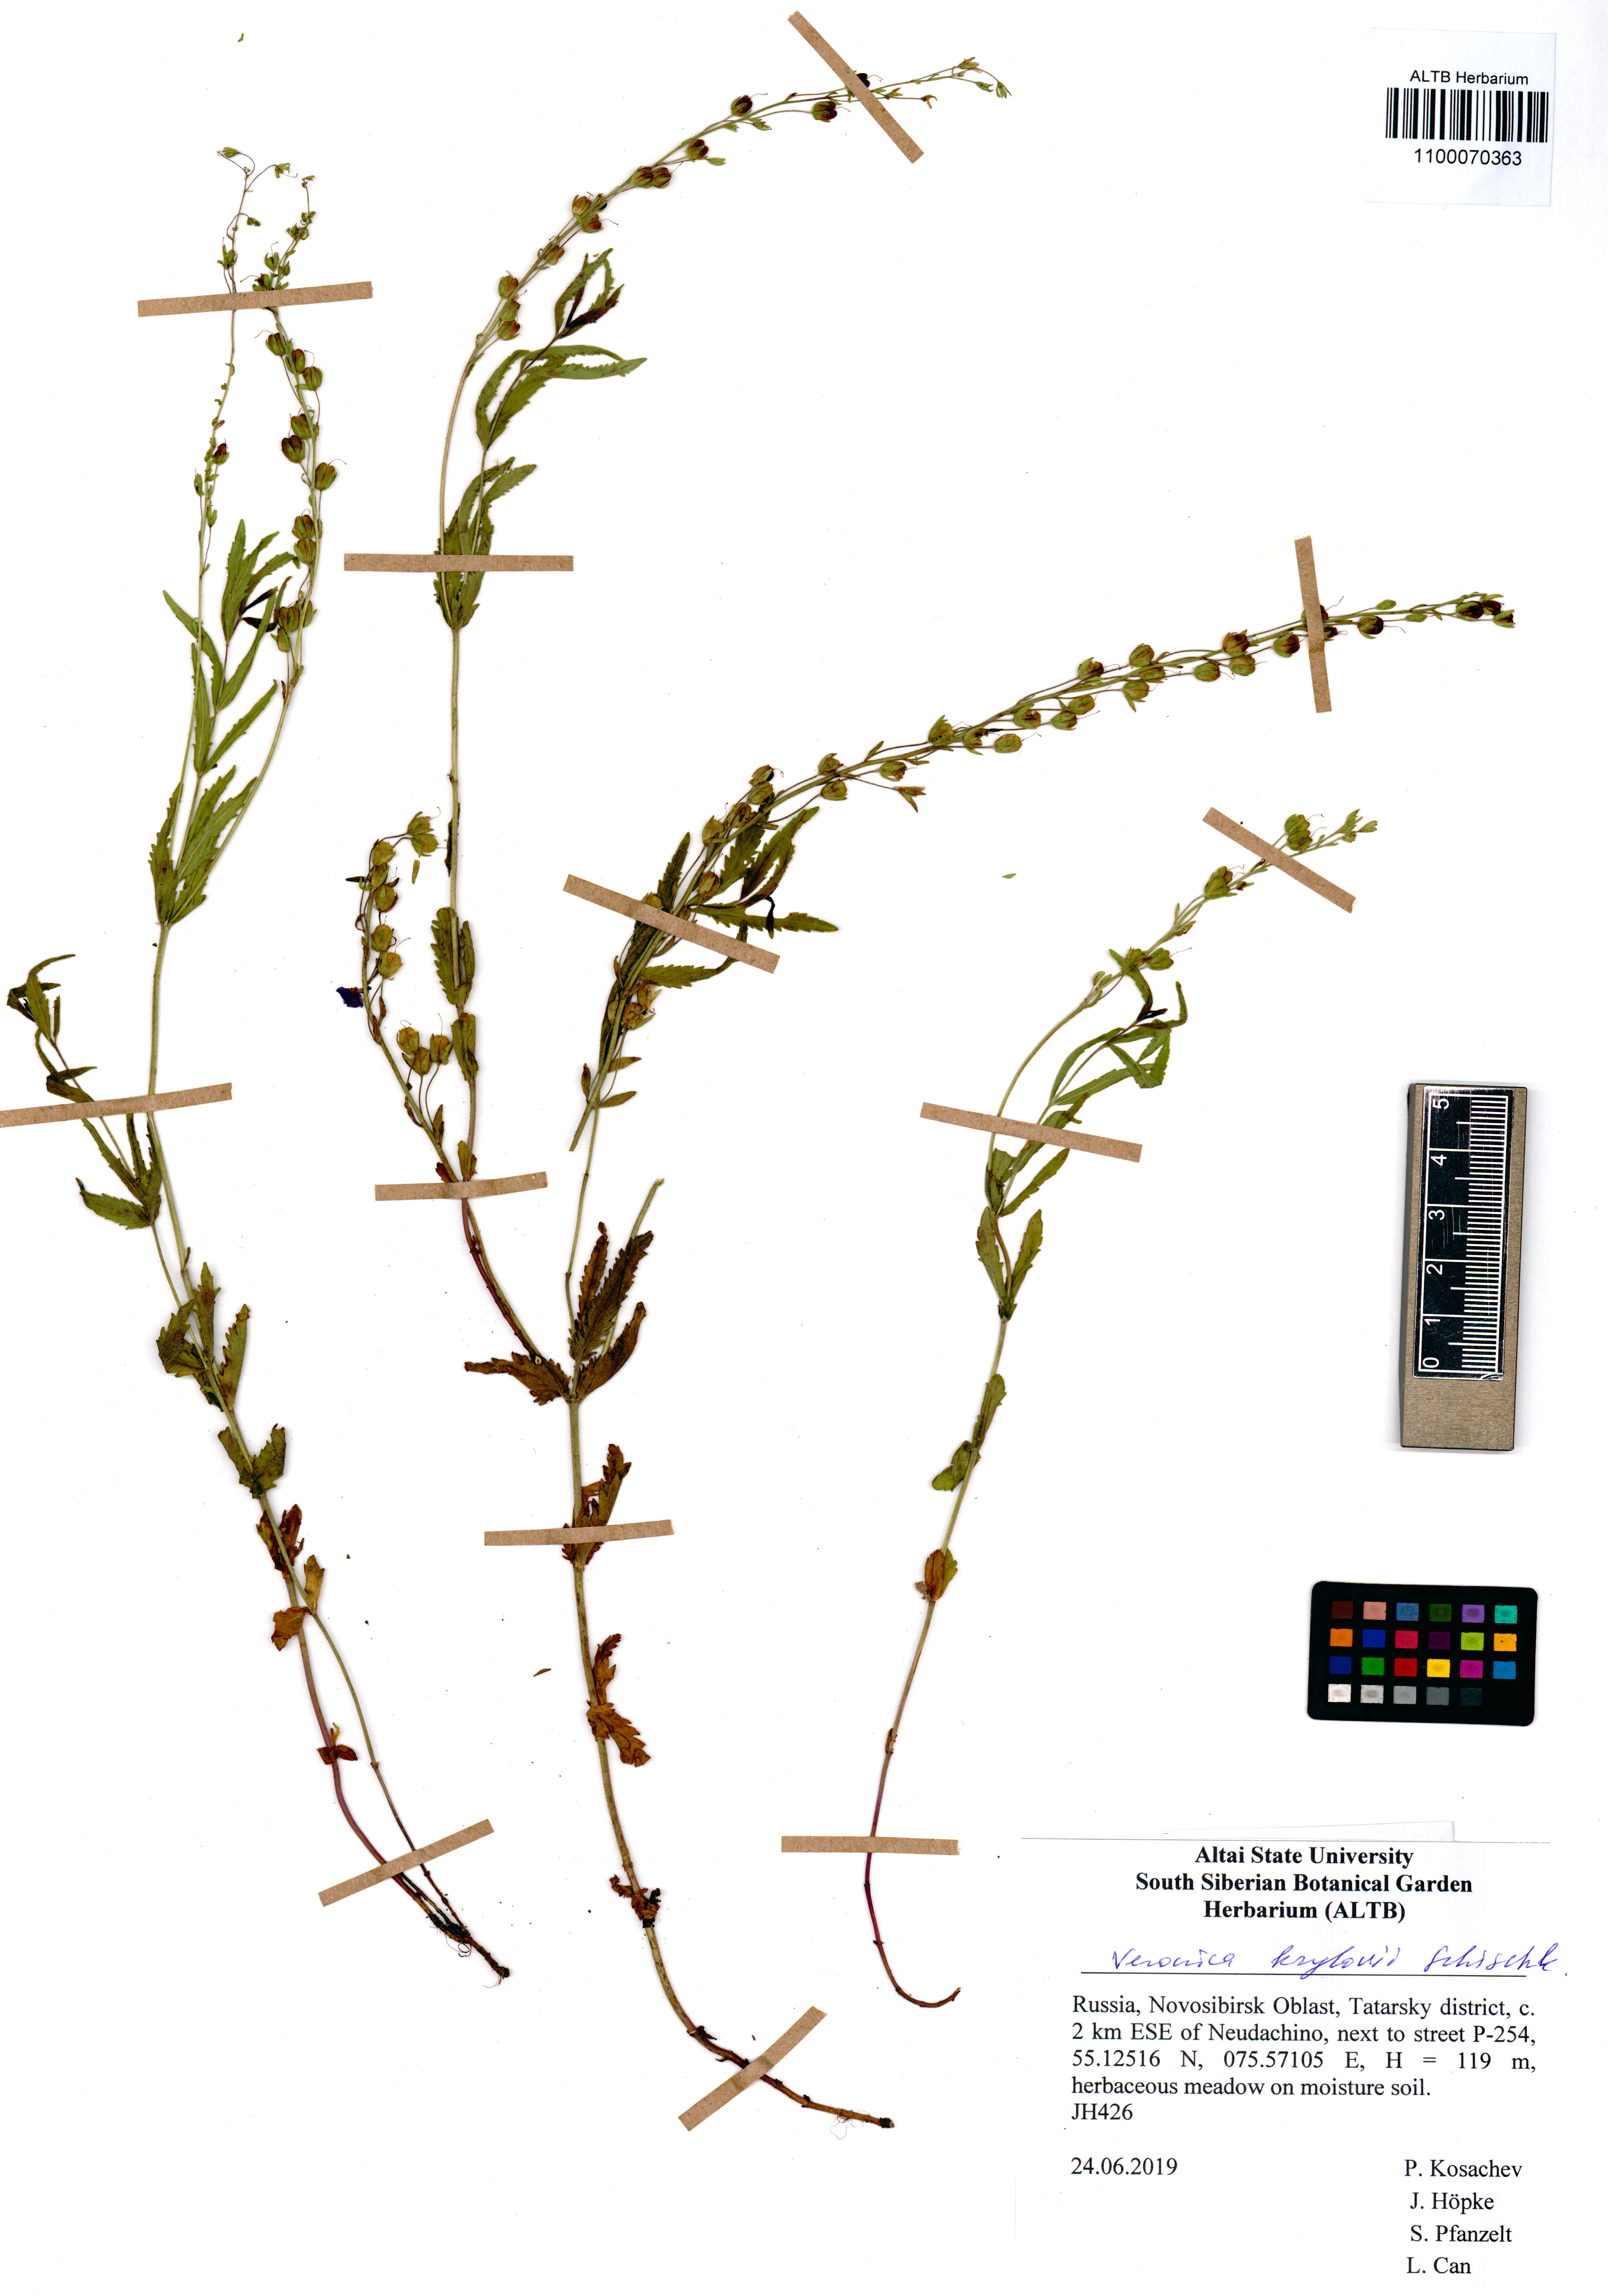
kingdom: Plantae
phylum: Tracheophyta
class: Magnoliopsida
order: Lamiales
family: Plantaginaceae
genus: Veronica
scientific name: Veronica krylovii
